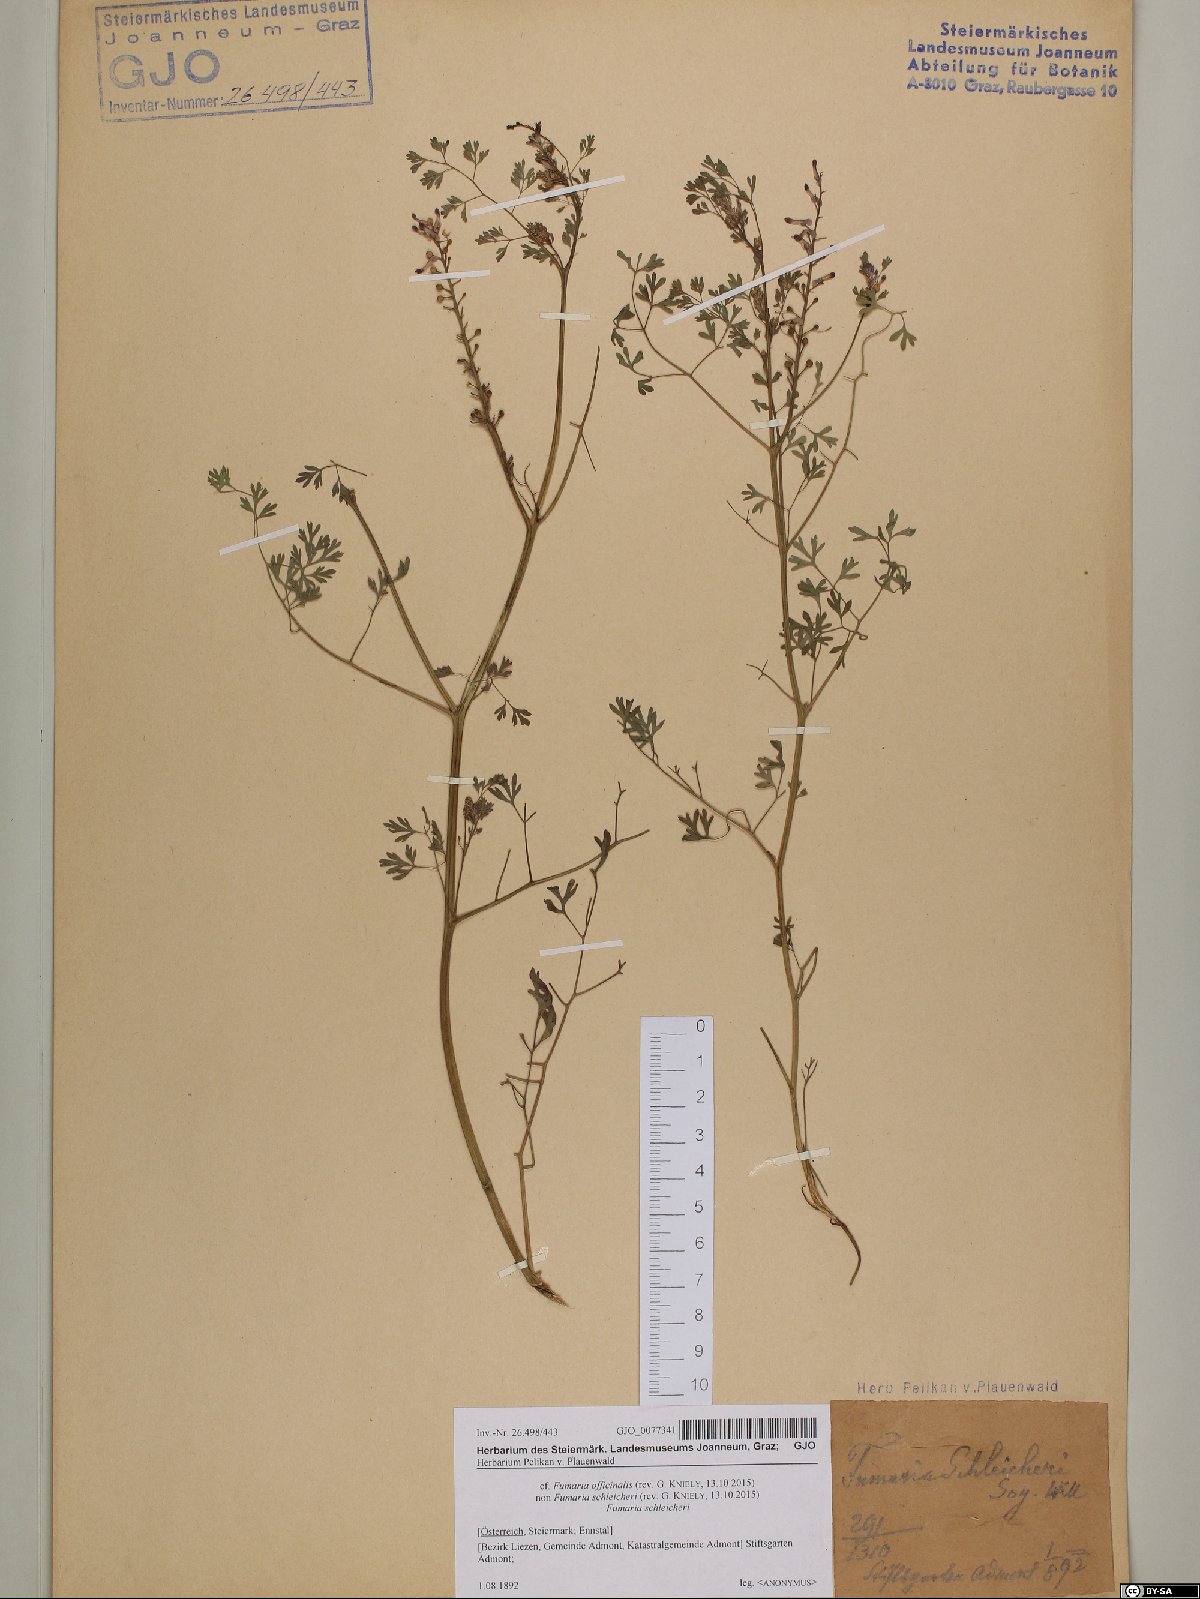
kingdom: Plantae
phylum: Tracheophyta
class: Magnoliopsida
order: Ranunculales
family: Papaveraceae
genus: Fumaria
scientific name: Fumaria officinalis
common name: Common fumitory
